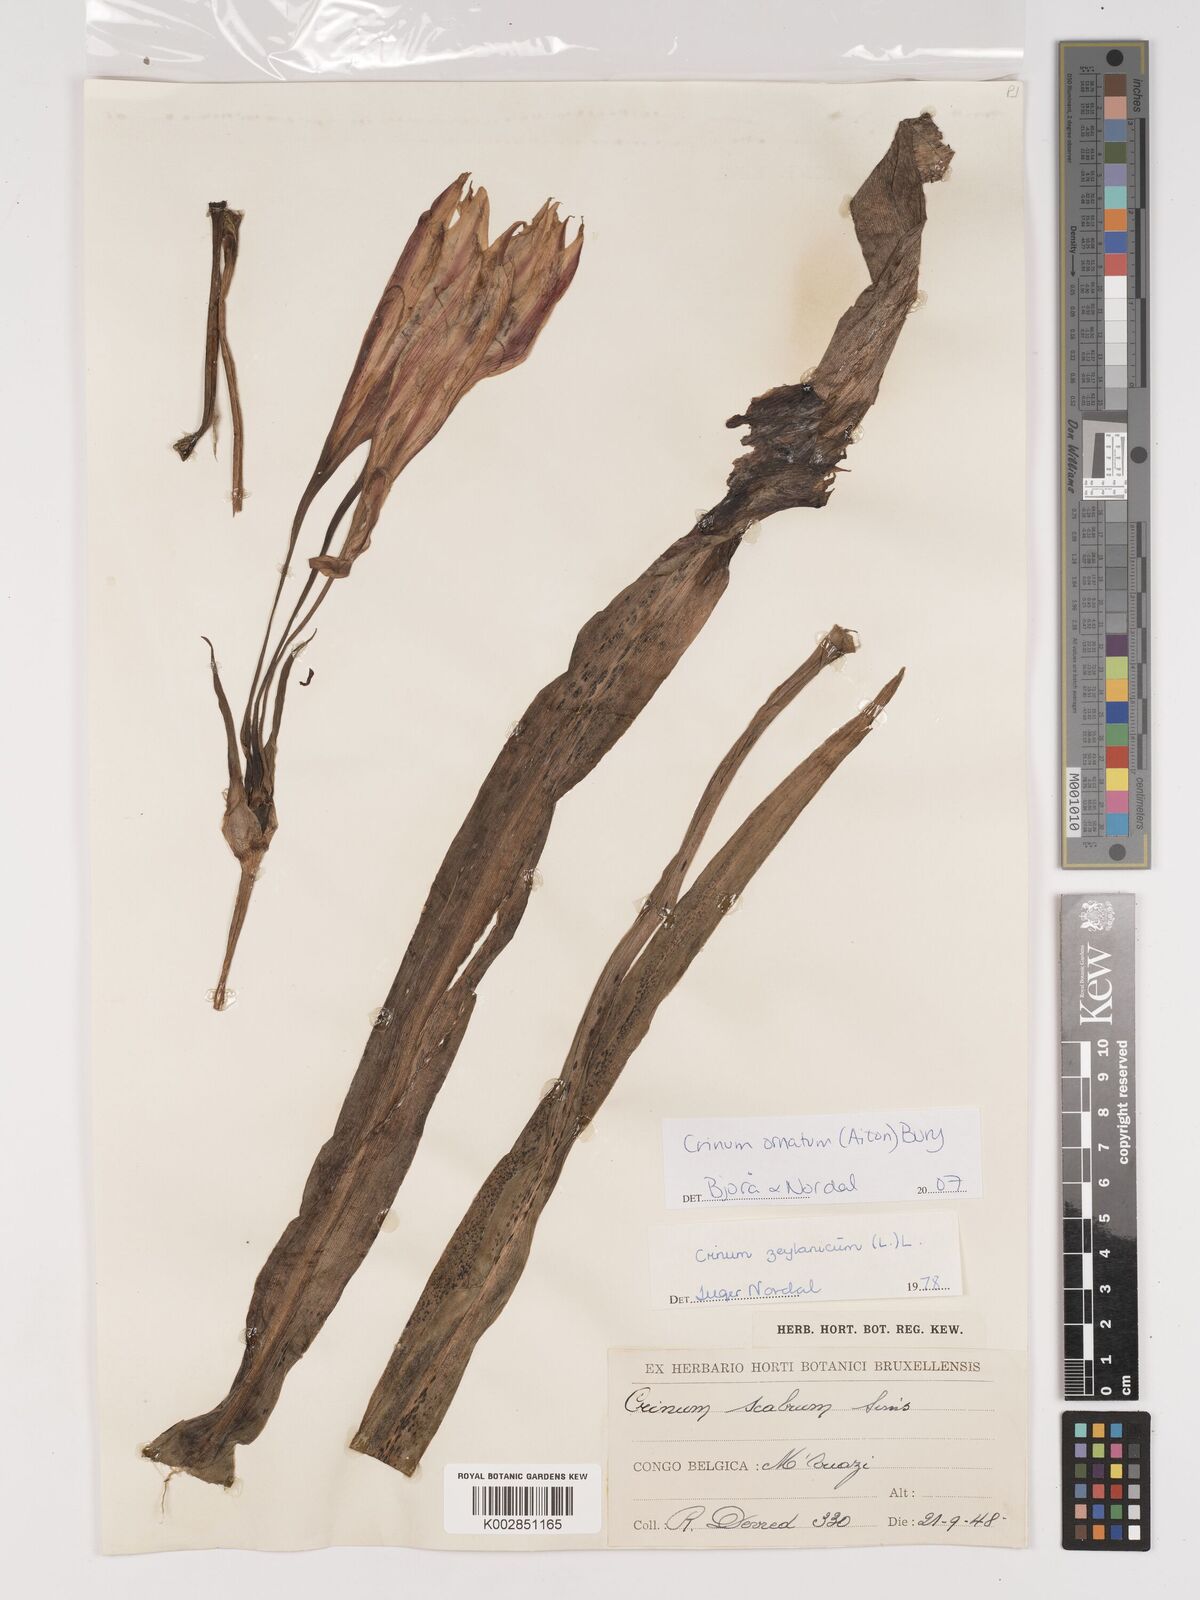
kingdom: Plantae
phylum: Tracheophyta
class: Liliopsida
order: Asparagales
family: Amaryllidaceae
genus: Crinum
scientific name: Crinum ornatum
